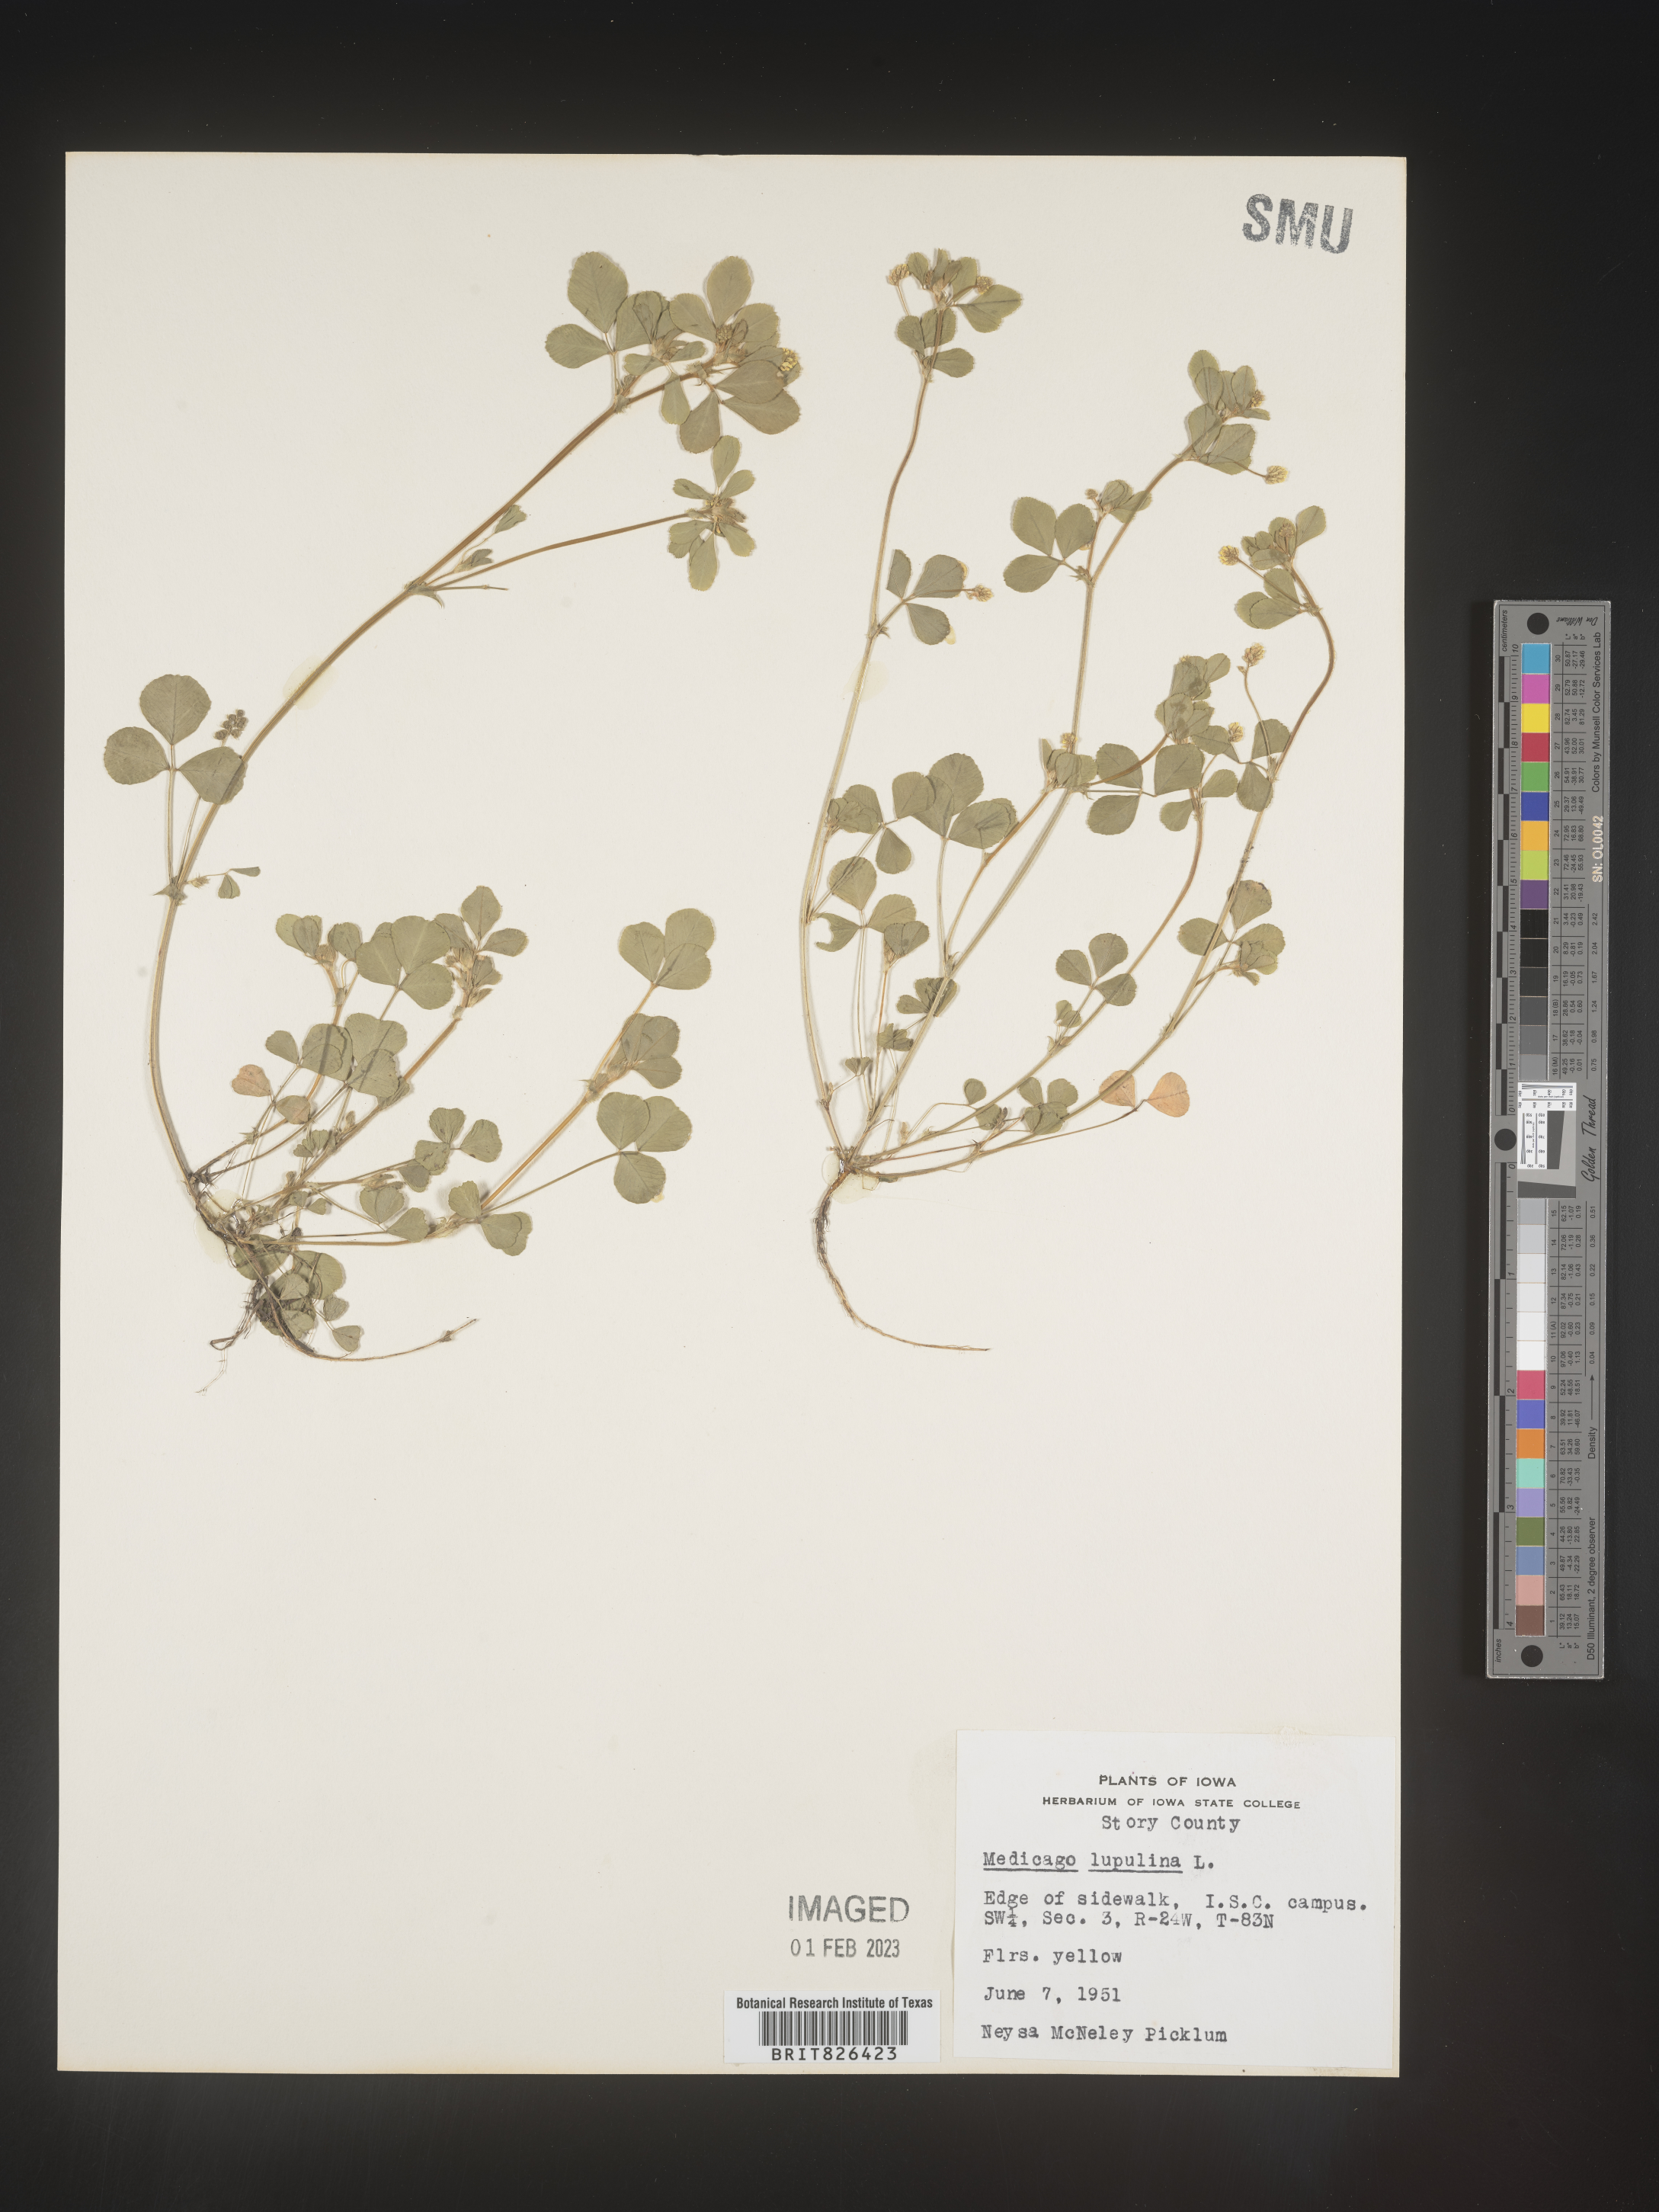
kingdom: Plantae
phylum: Tracheophyta
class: Magnoliopsida
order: Fabales
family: Fabaceae
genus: Medicago
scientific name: Medicago lupulina
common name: Black medick
